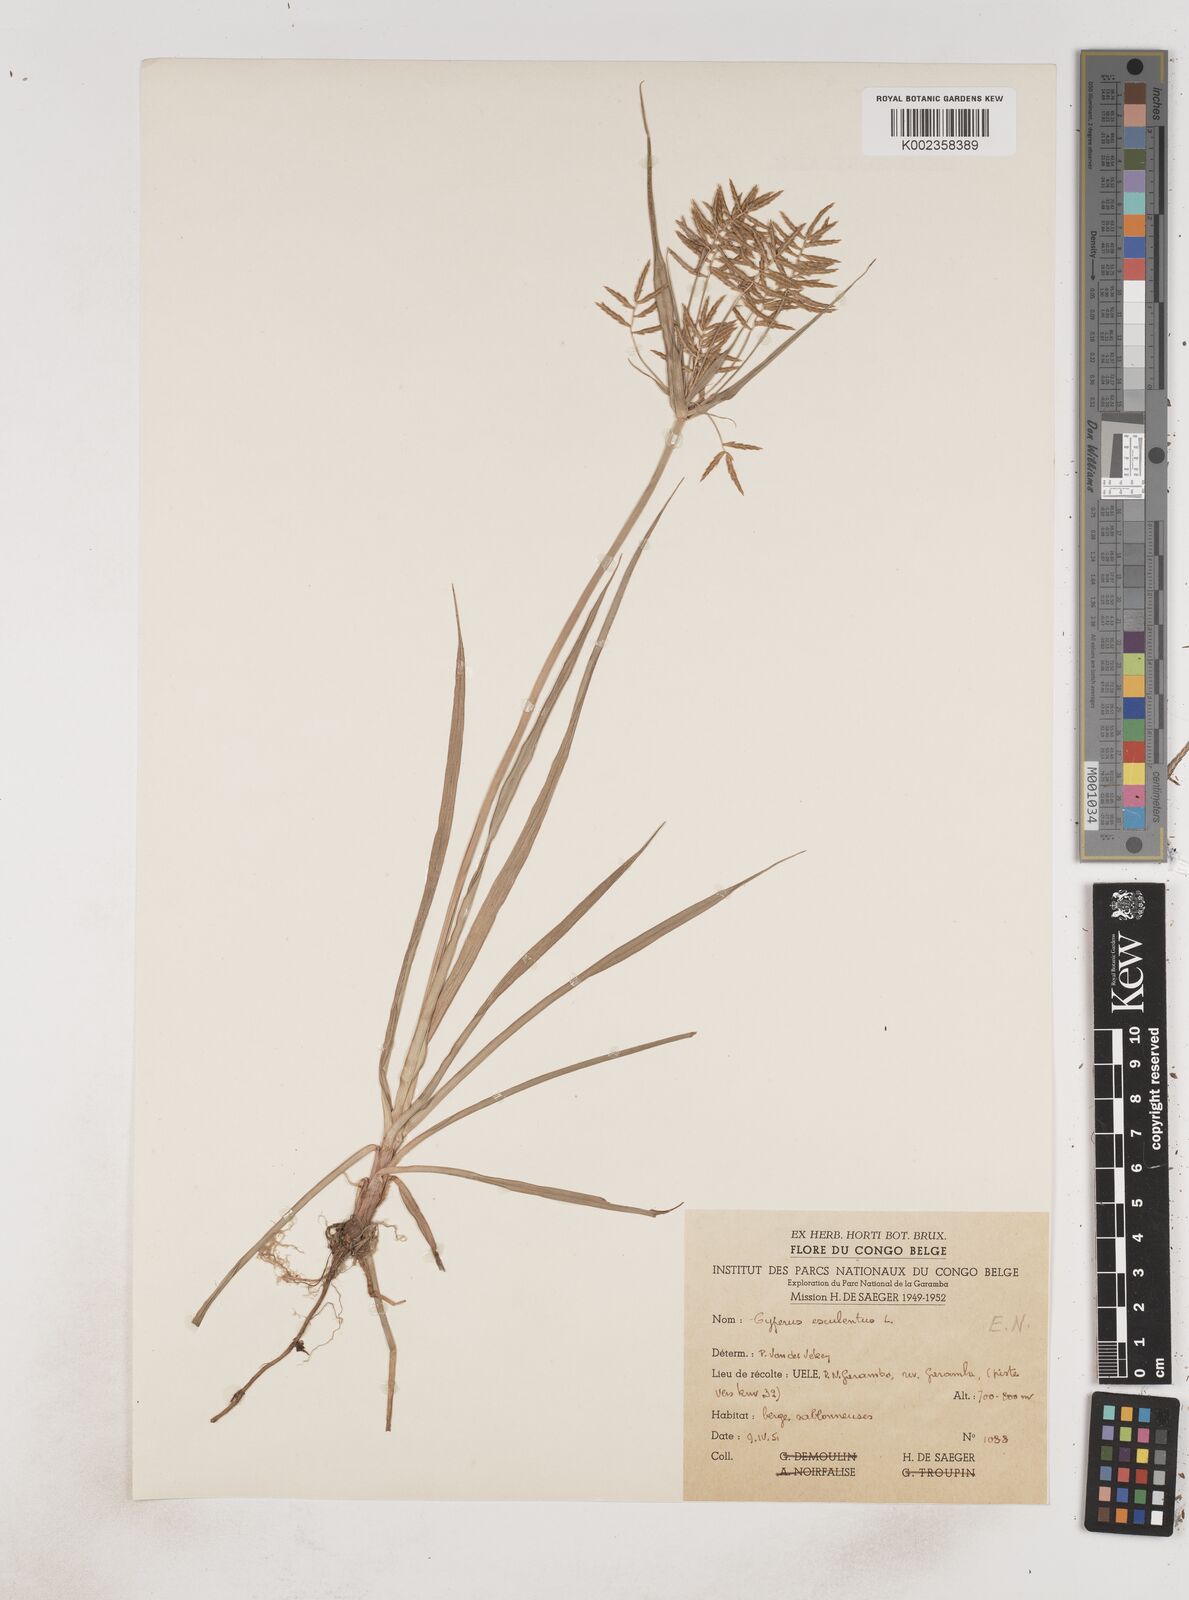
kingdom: Plantae
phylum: Tracheophyta
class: Liliopsida
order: Poales
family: Cyperaceae
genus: Cyperus
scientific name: Cyperus esculentus
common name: Yellow nutsedge
